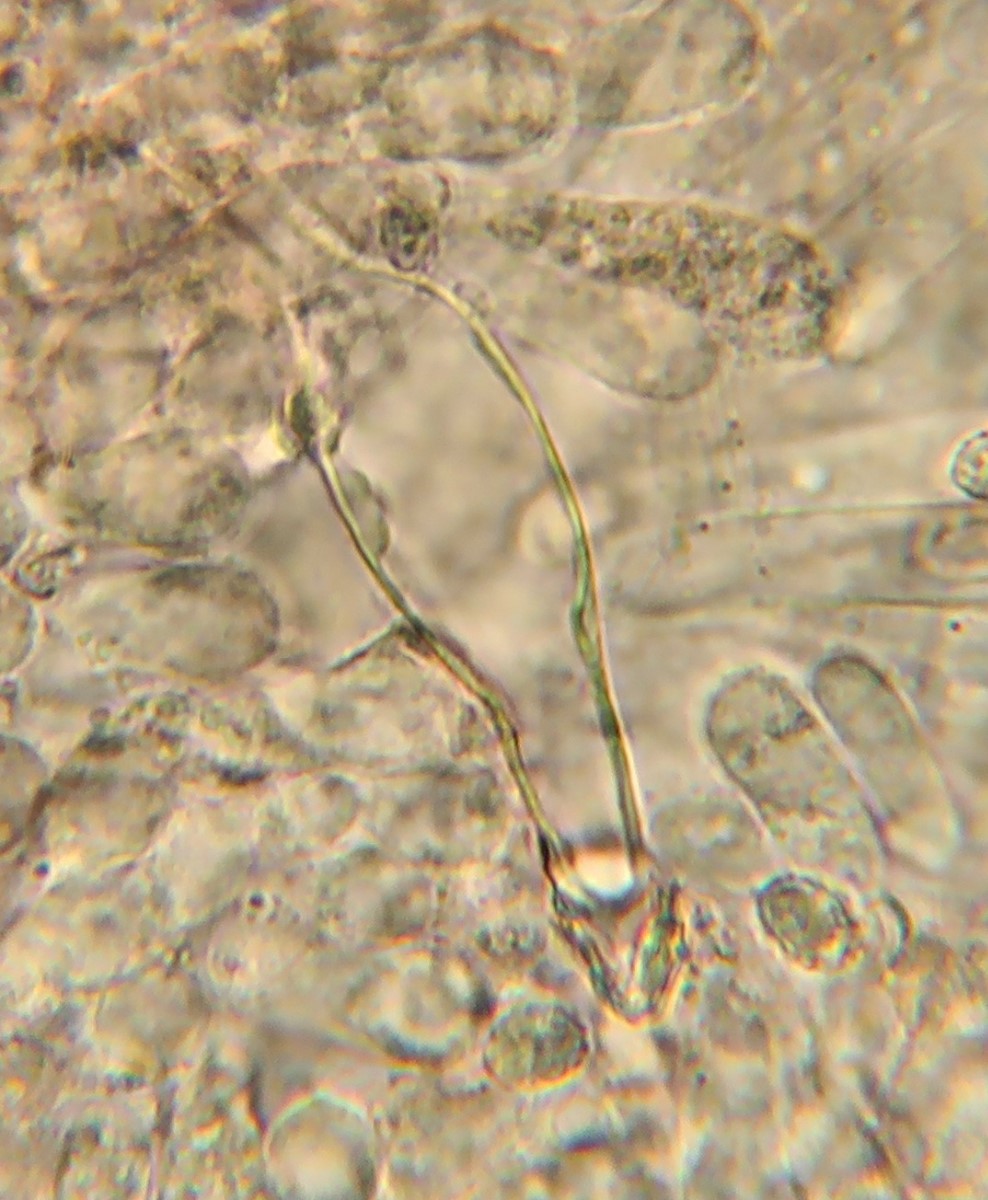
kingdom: Fungi
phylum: Basidiomycota
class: Agaricomycetes
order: Agaricales
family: Tricholomataceae
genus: Melanoleuca
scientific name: Melanoleuca polioleuca
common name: hvidbladet munkehat
